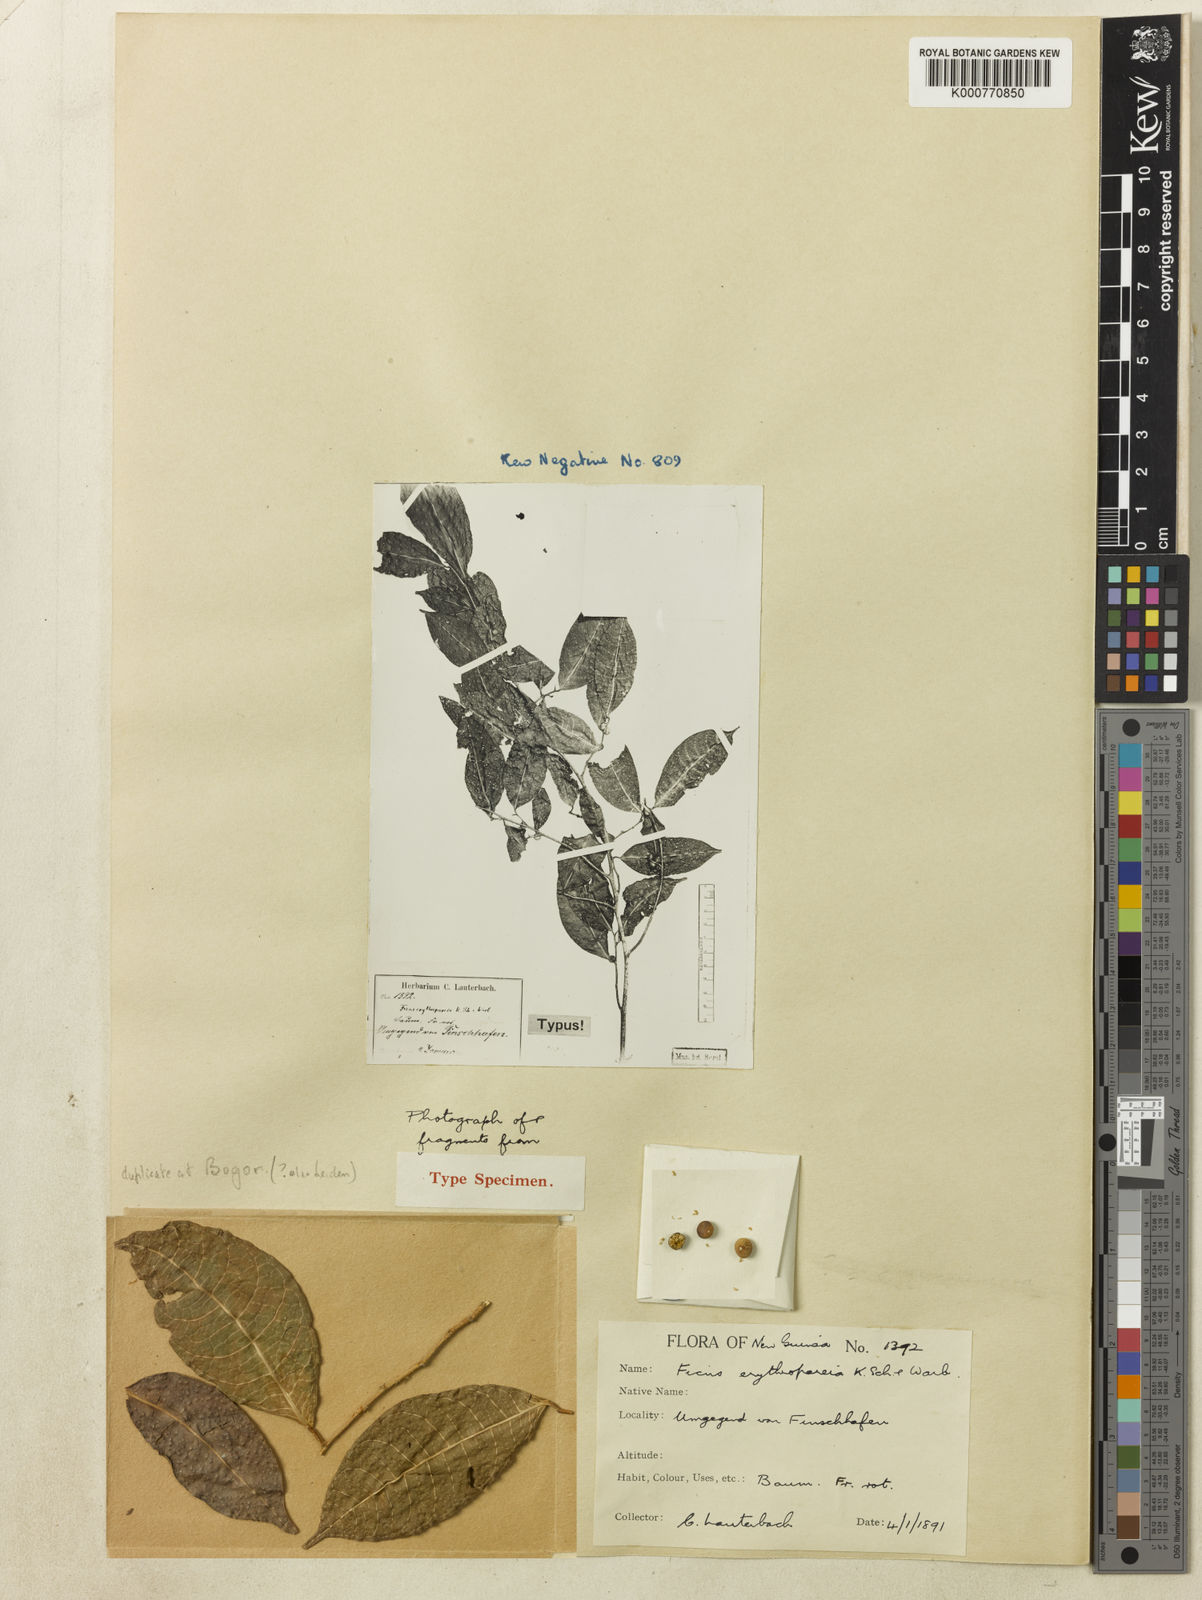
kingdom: Plantae
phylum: Tracheophyta
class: Magnoliopsida
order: Rosales
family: Moraceae
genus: Ficus
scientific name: Ficus subulata
